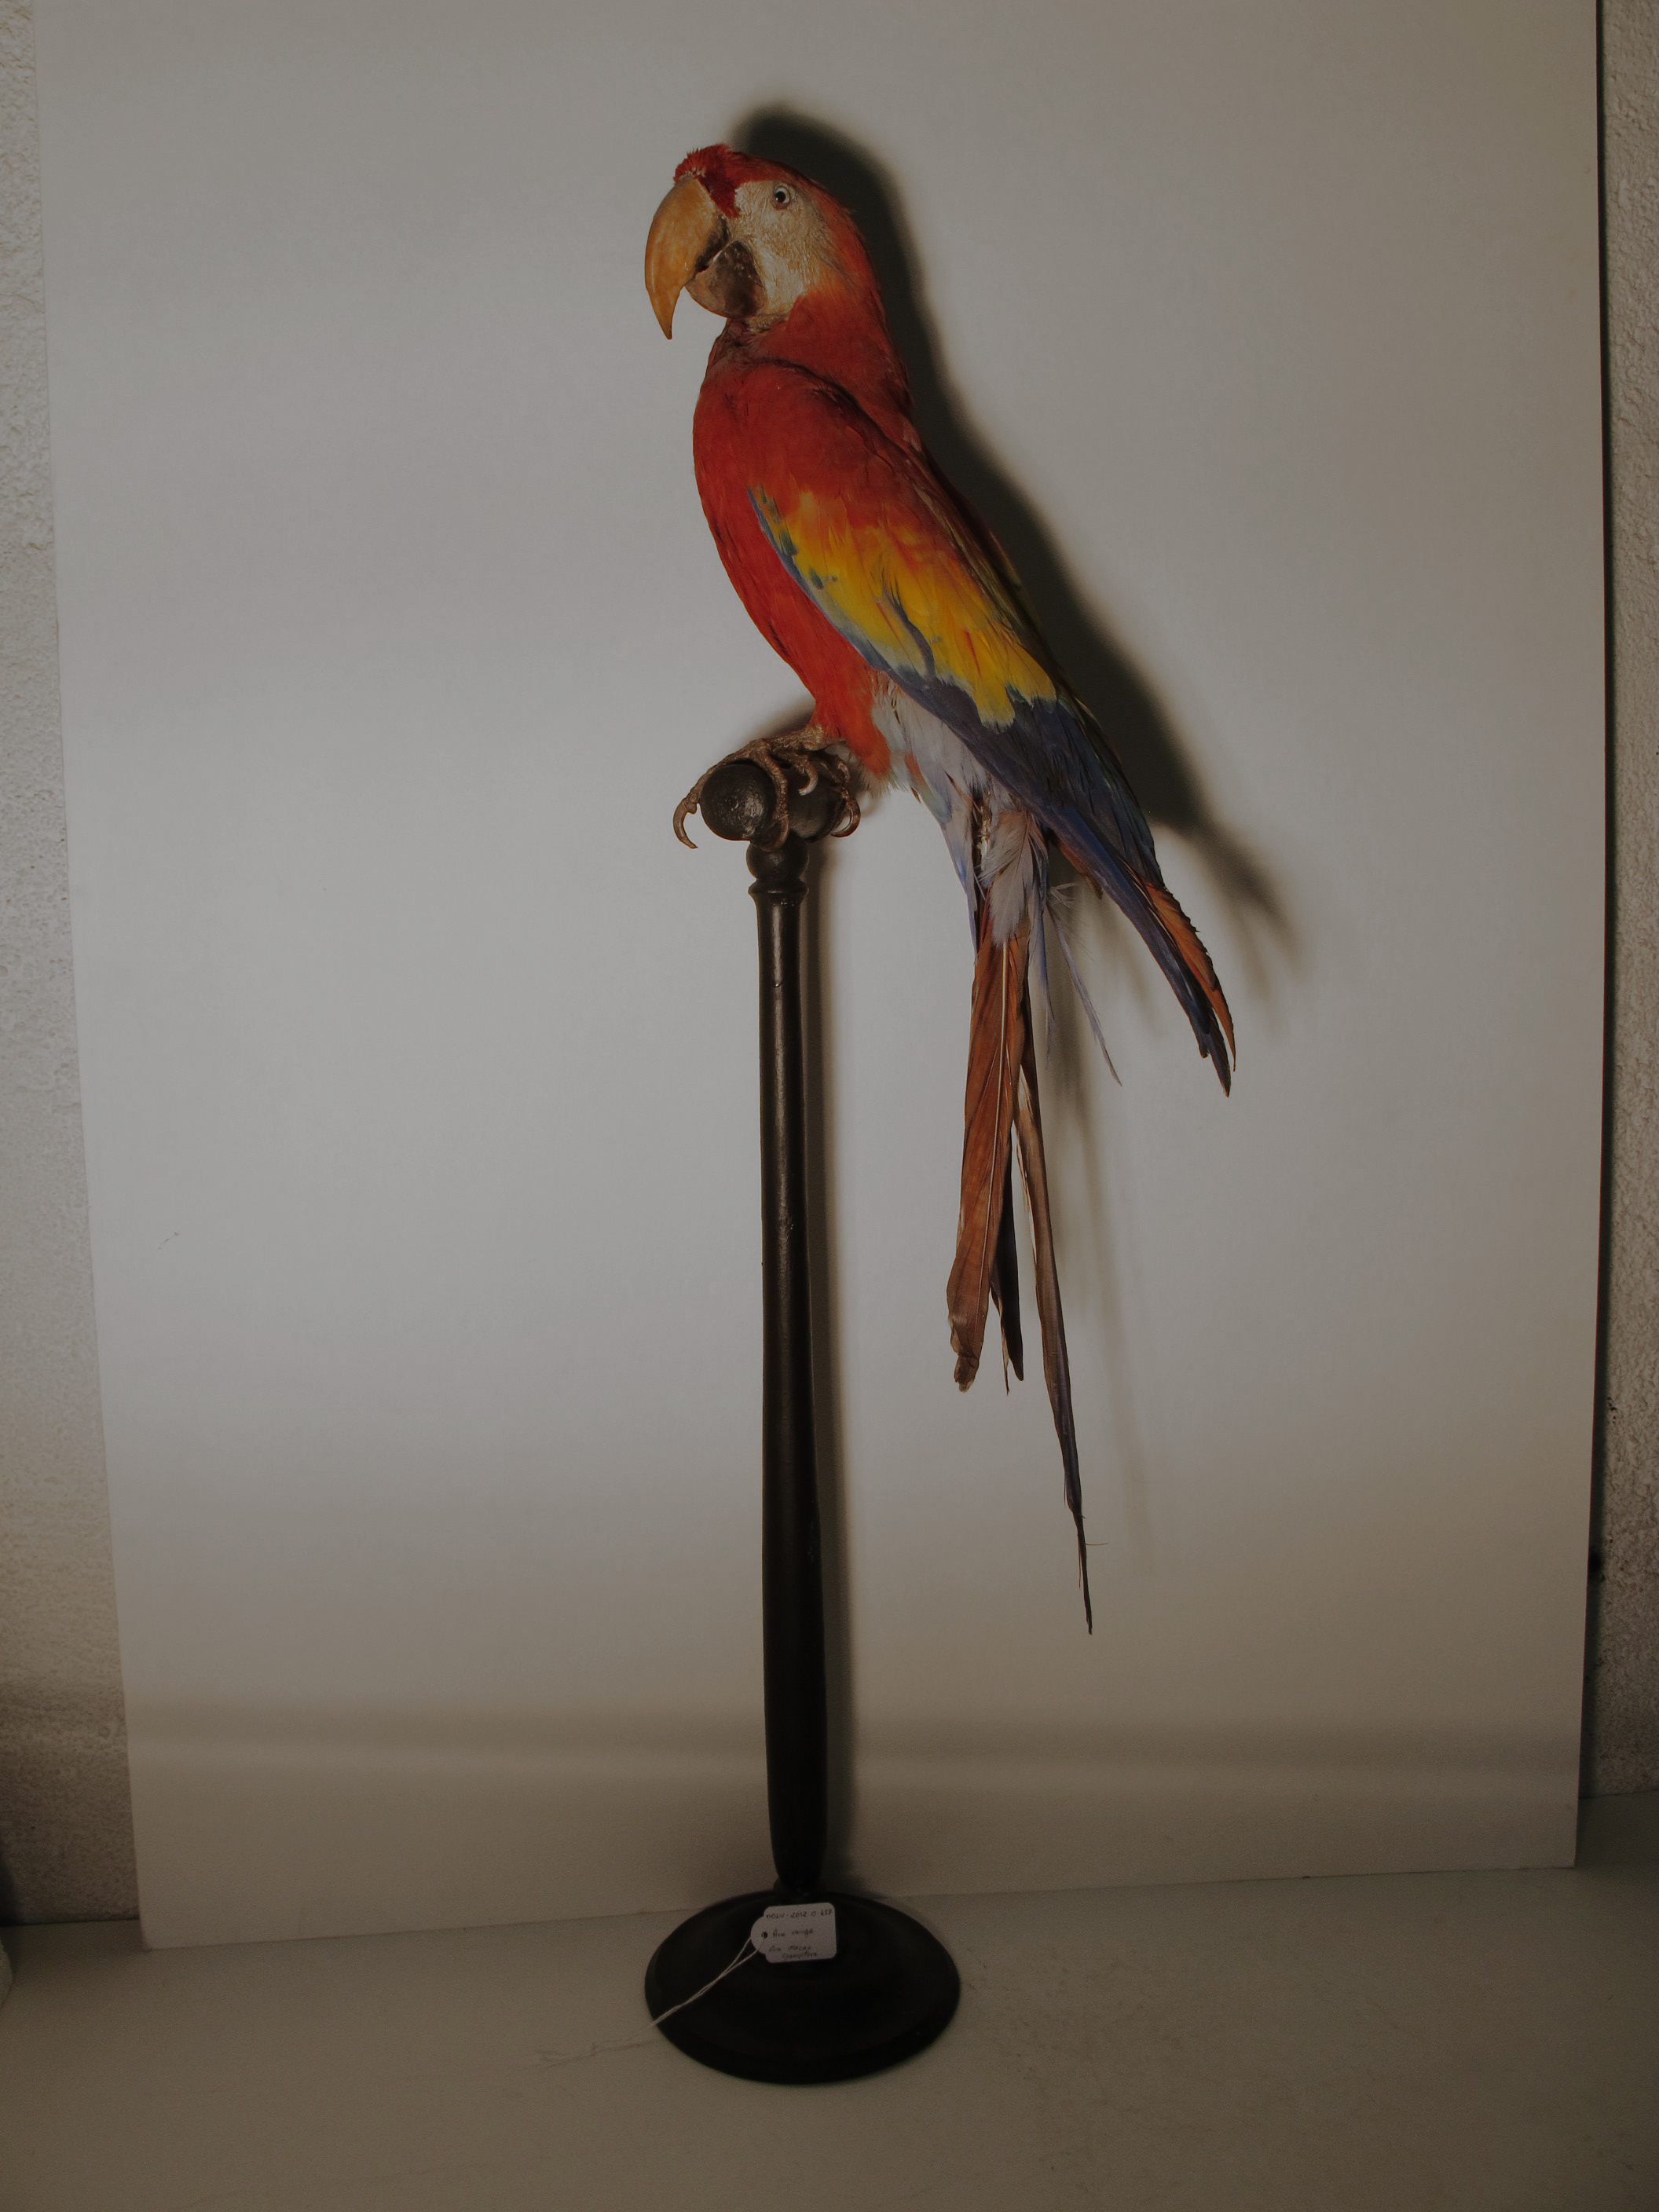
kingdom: Animalia
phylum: Chordata
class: Aves
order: Psittaciformes
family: Psittacidae
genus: Ara
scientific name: Ara macao
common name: Scarlet Macaw
